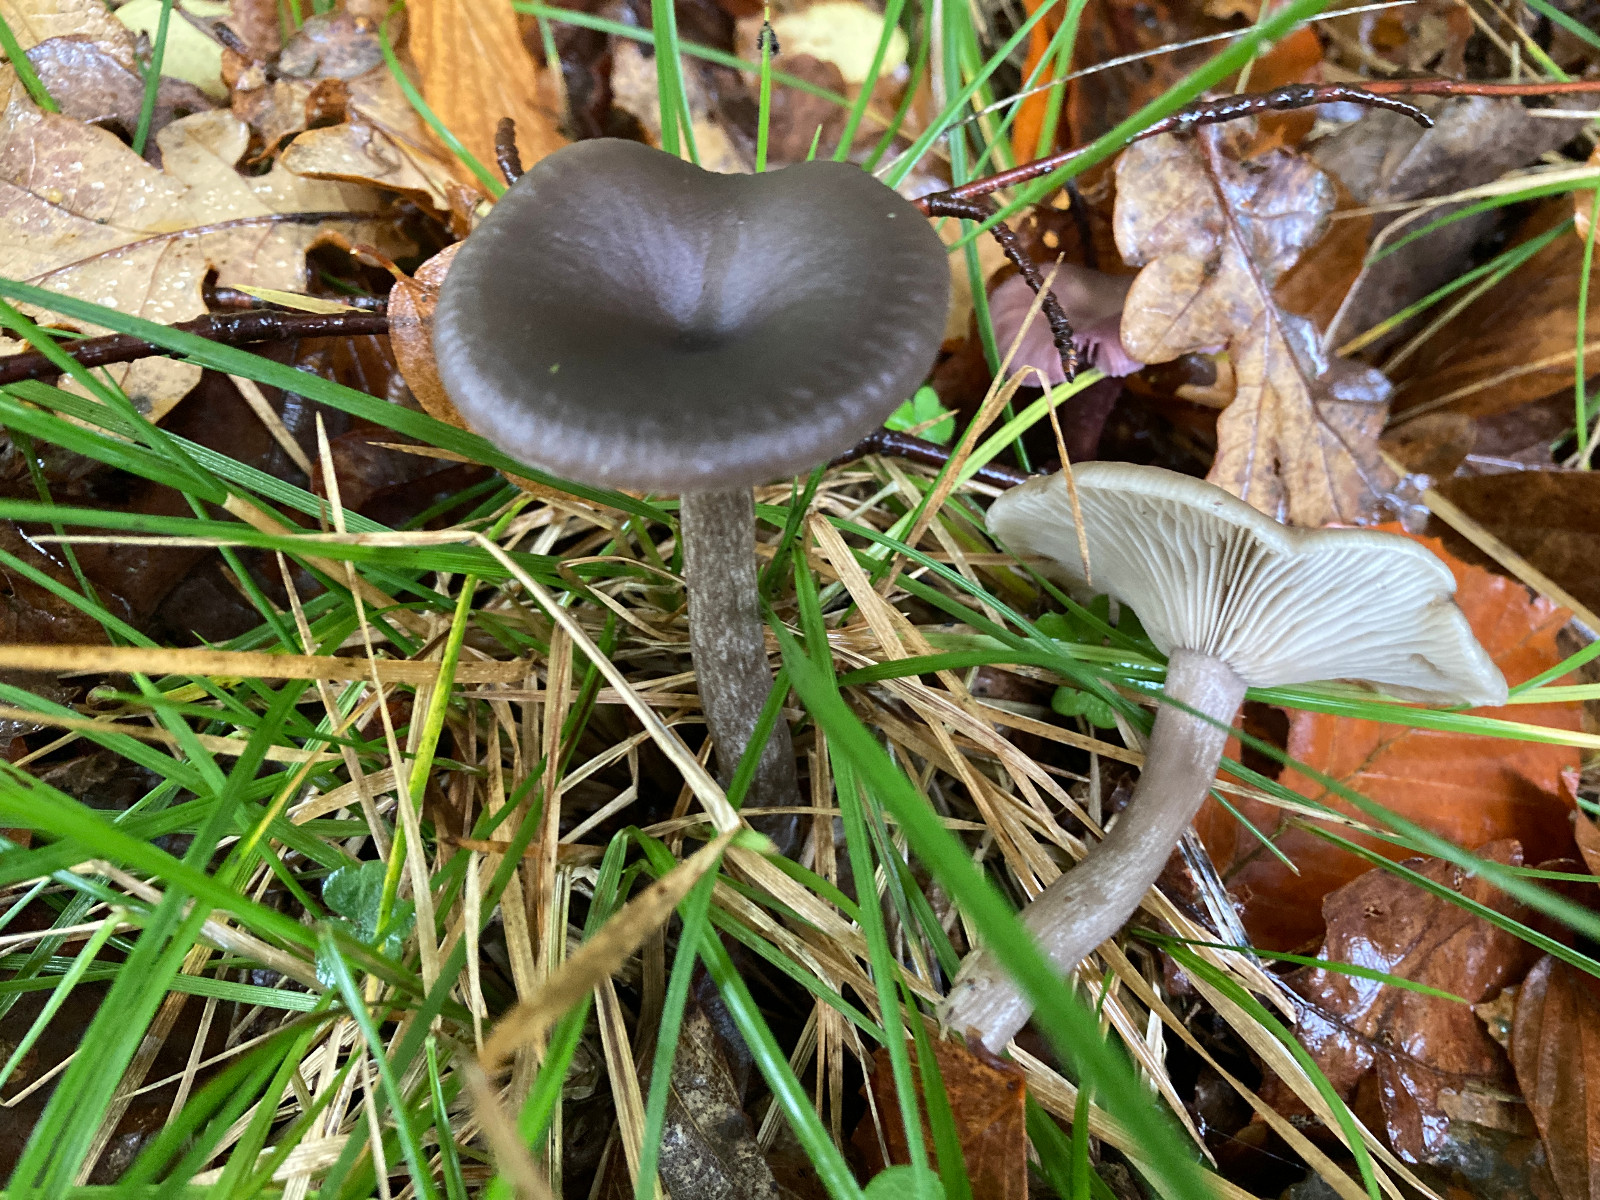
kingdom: Fungi
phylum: Basidiomycota
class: Agaricomycetes
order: Agaricales
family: Pseudoclitocybaceae
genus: Pseudoclitocybe
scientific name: Pseudoclitocybe cyathiformis
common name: almindelig bægertragthat
